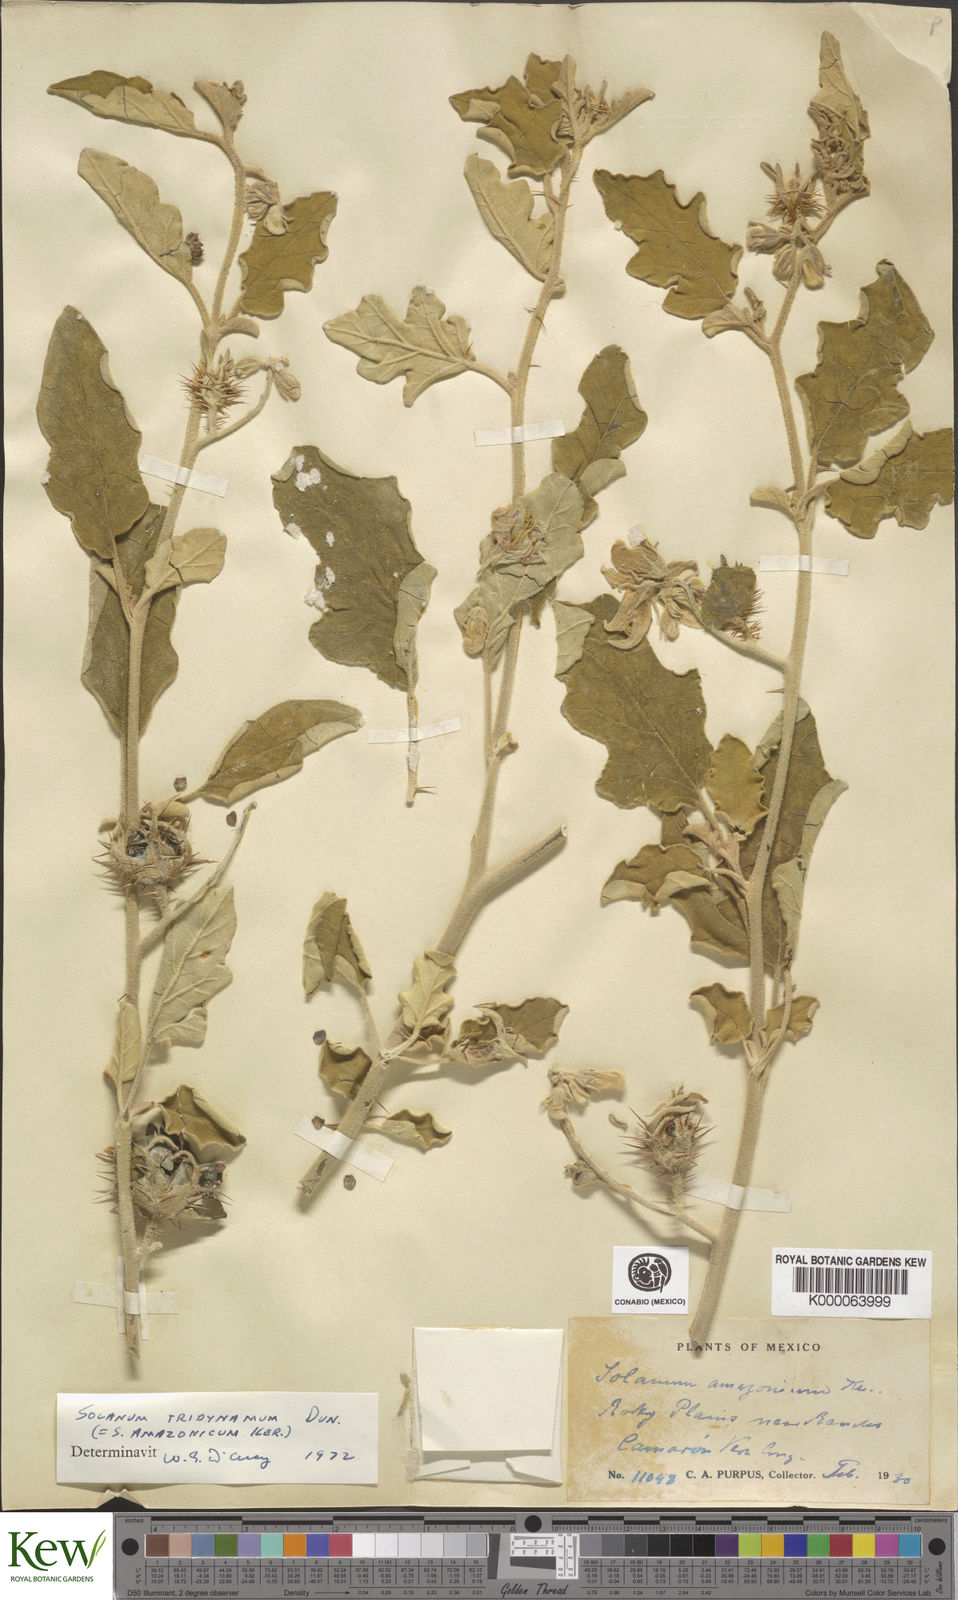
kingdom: Plantae
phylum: Tracheophyta
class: Magnoliopsida
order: Solanales
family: Solanaceae
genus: Solanum
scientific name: Solanum houstonii
